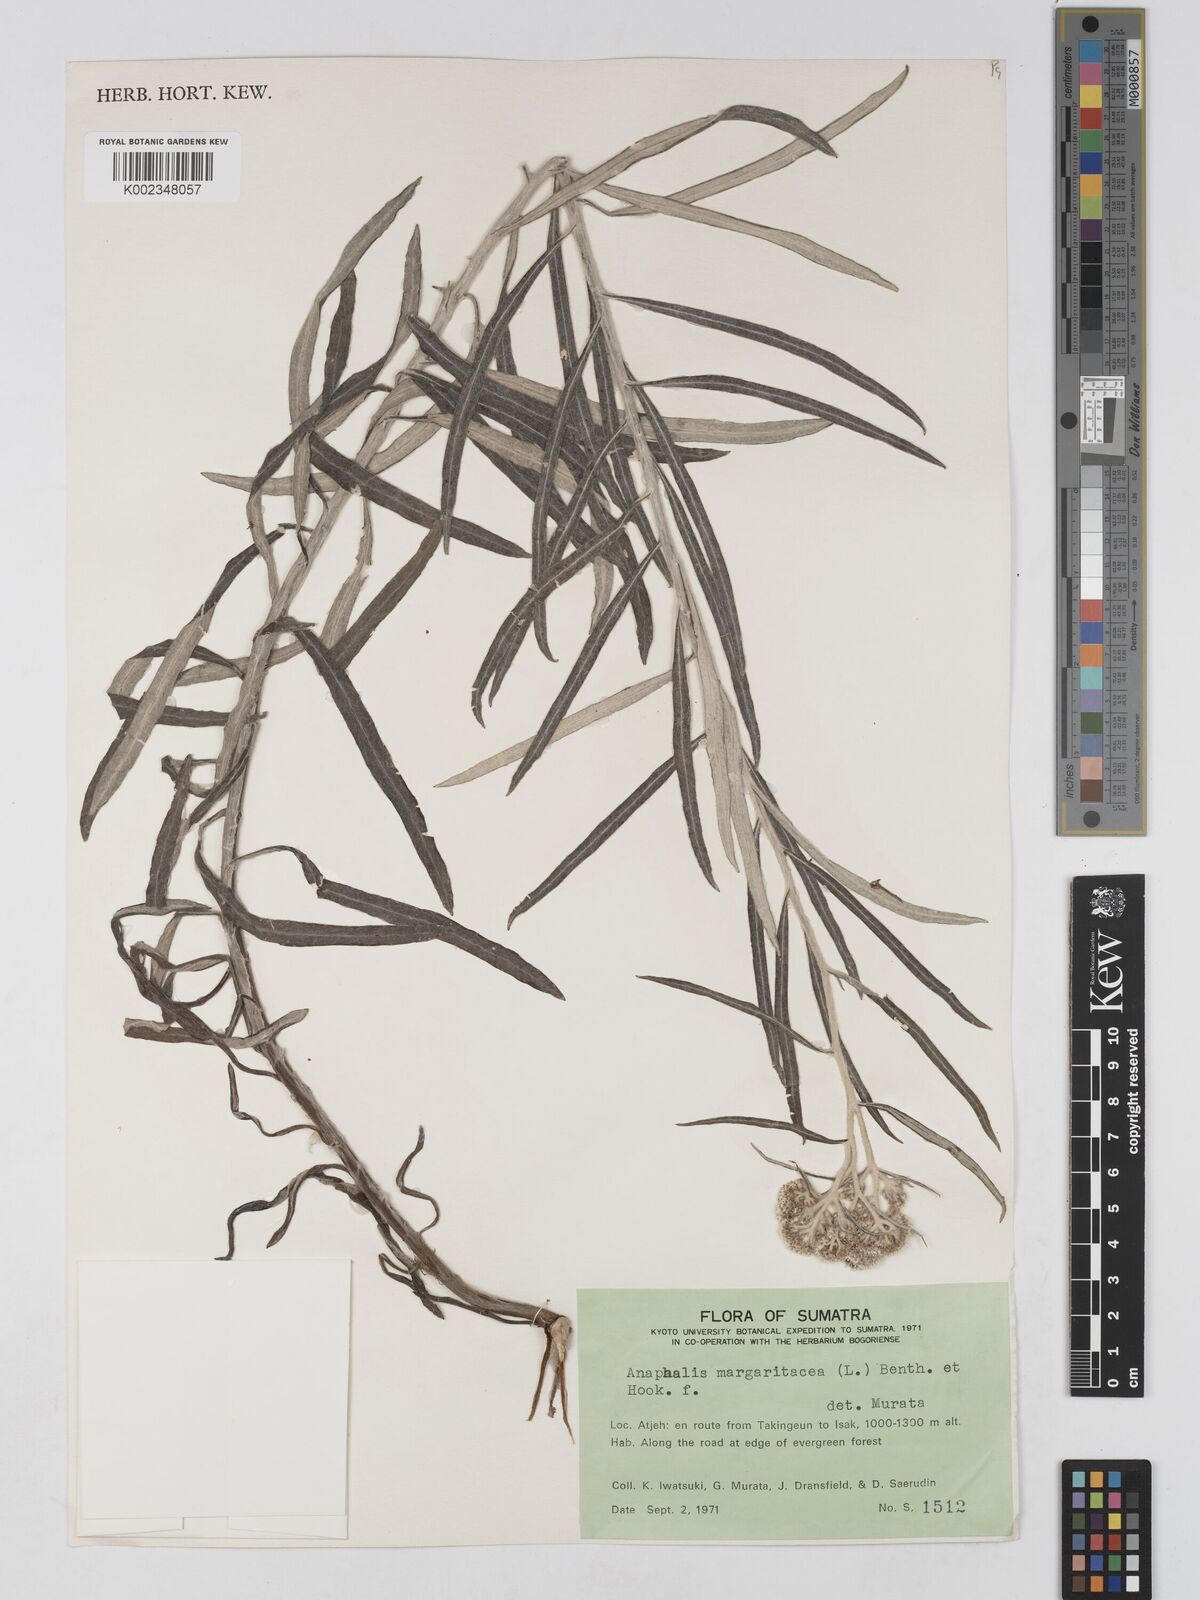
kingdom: Plantae
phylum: Tracheophyta
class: Magnoliopsida
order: Asterales
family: Asteraceae
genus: Anaphalis
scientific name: Anaphalis margaritacea
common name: Pearly everlasting
